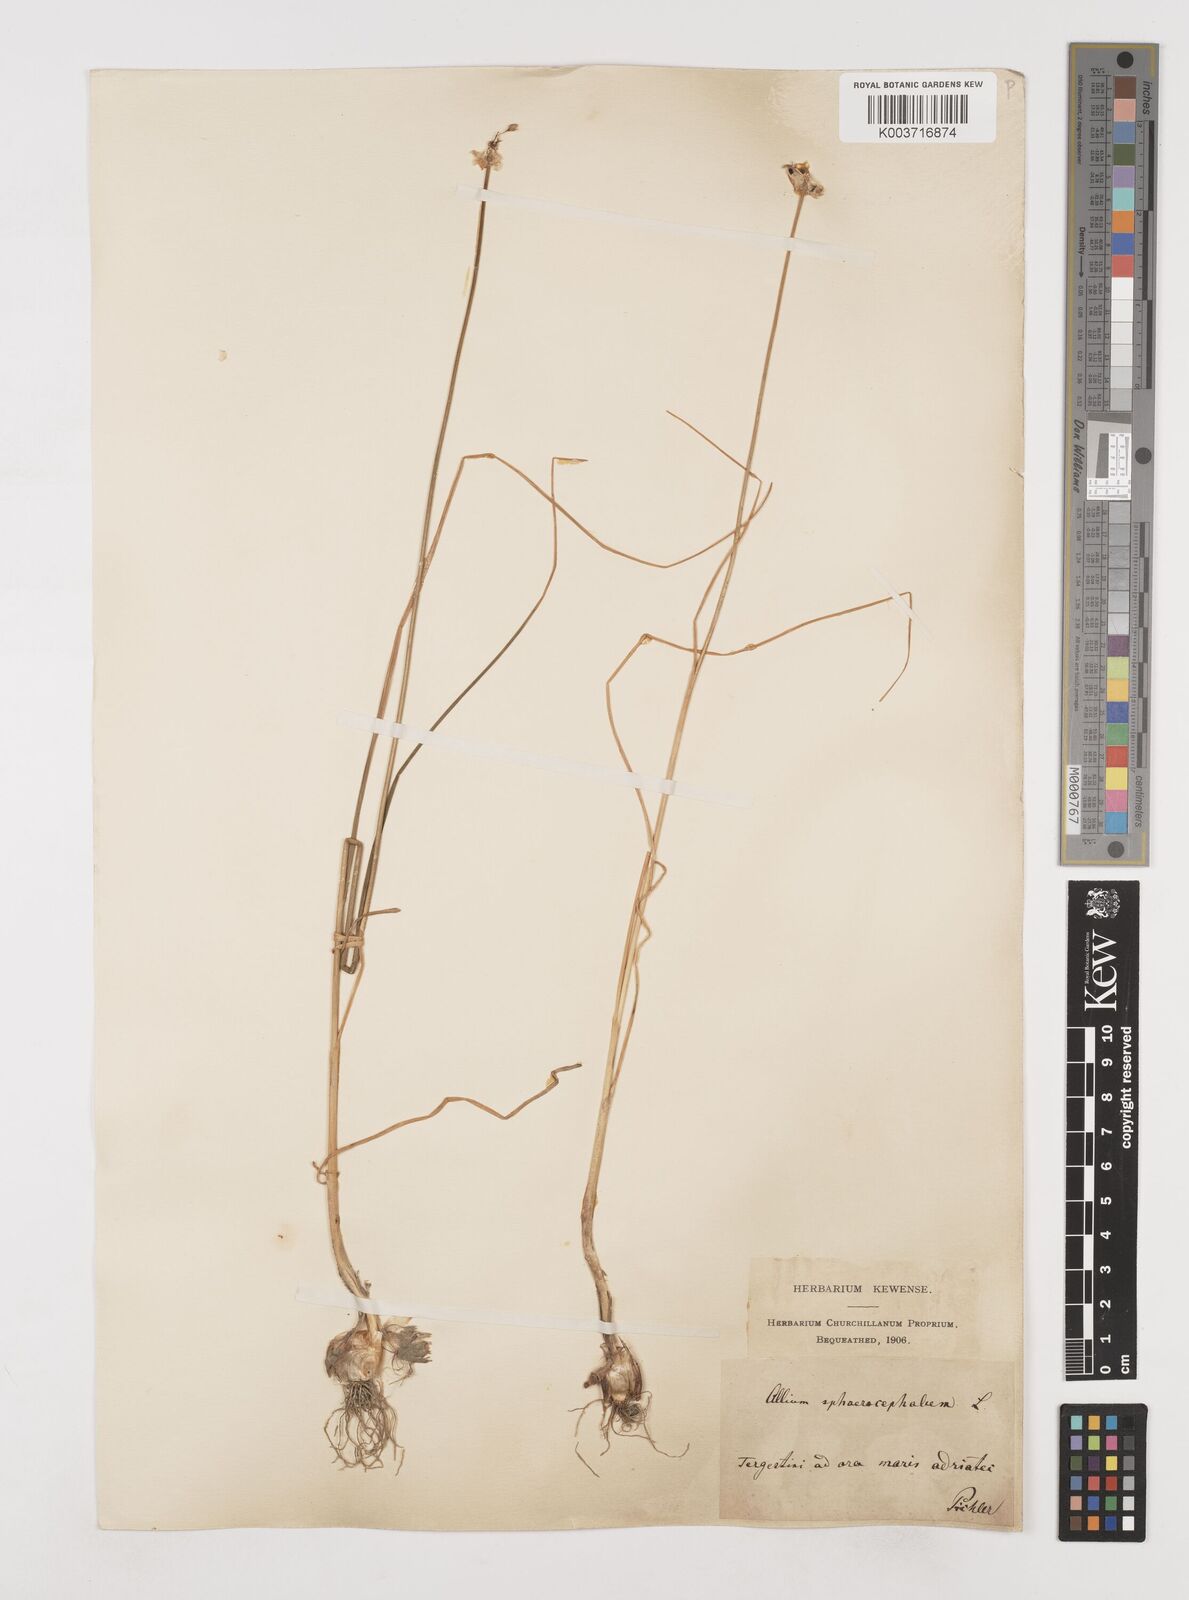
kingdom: Plantae
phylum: Tracheophyta
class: Liliopsida
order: Asparagales
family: Amaryllidaceae
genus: Allium
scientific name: Allium sphaerocephalon
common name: Round-headed leek
